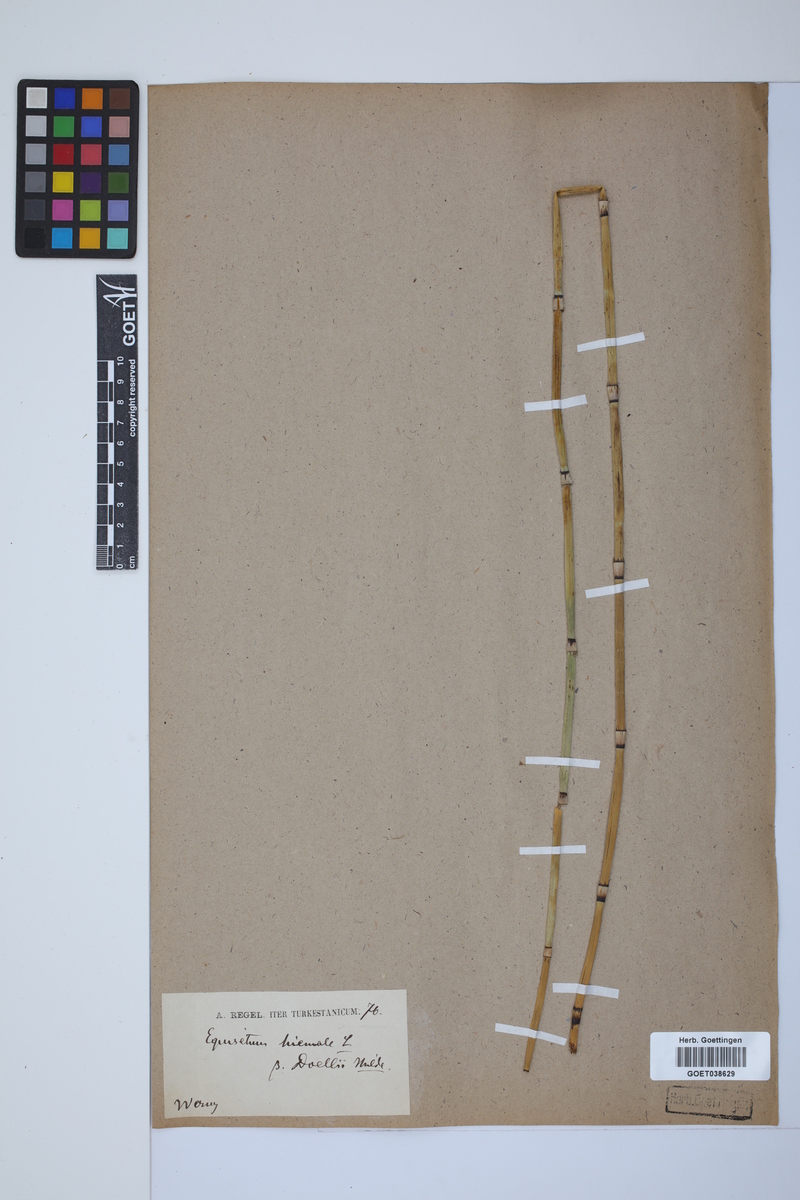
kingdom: Plantae
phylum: Tracheophyta
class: Polypodiopsida
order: Equisetales
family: Equisetaceae
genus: Equisetum
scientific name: Equisetum hyemale
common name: Rough horsetail
